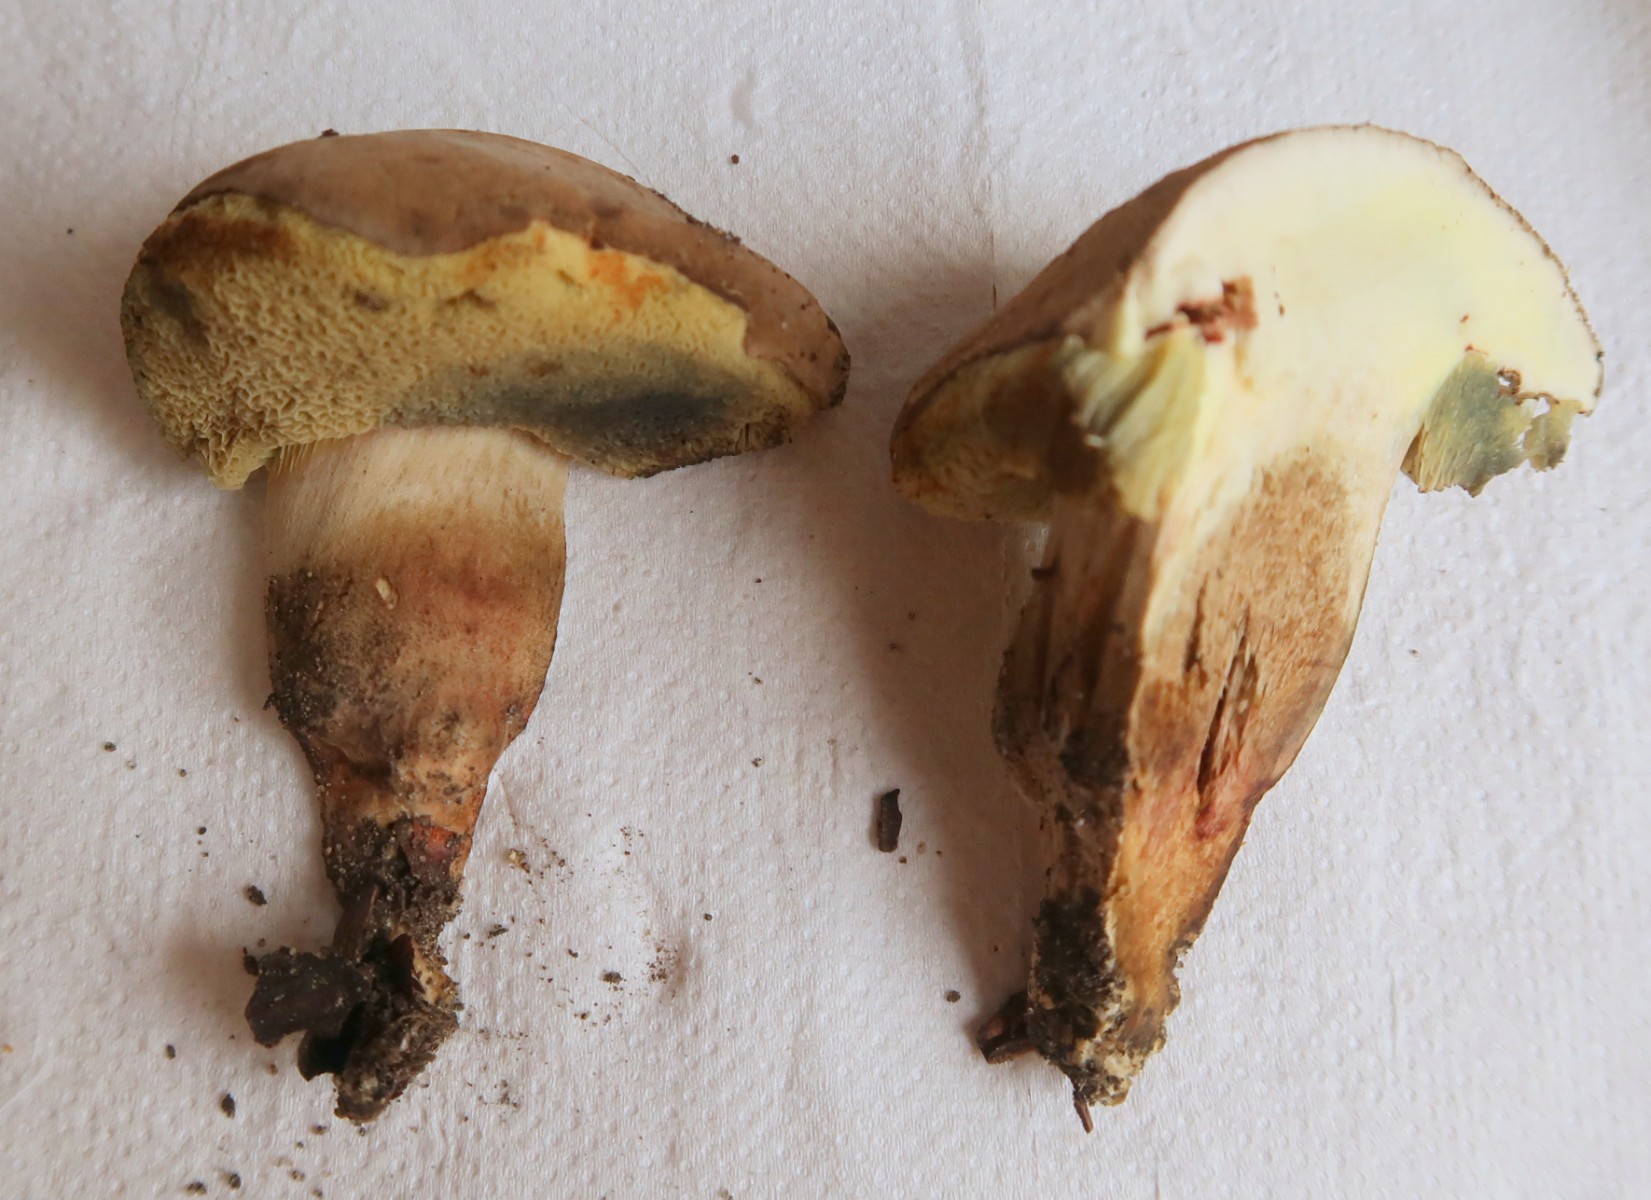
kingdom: Fungi
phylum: Basidiomycota
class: Agaricomycetes
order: Boletales
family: Boletaceae
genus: Butyriboletus
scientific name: Butyriboletus appendiculatus
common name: tenstokket rørhat
